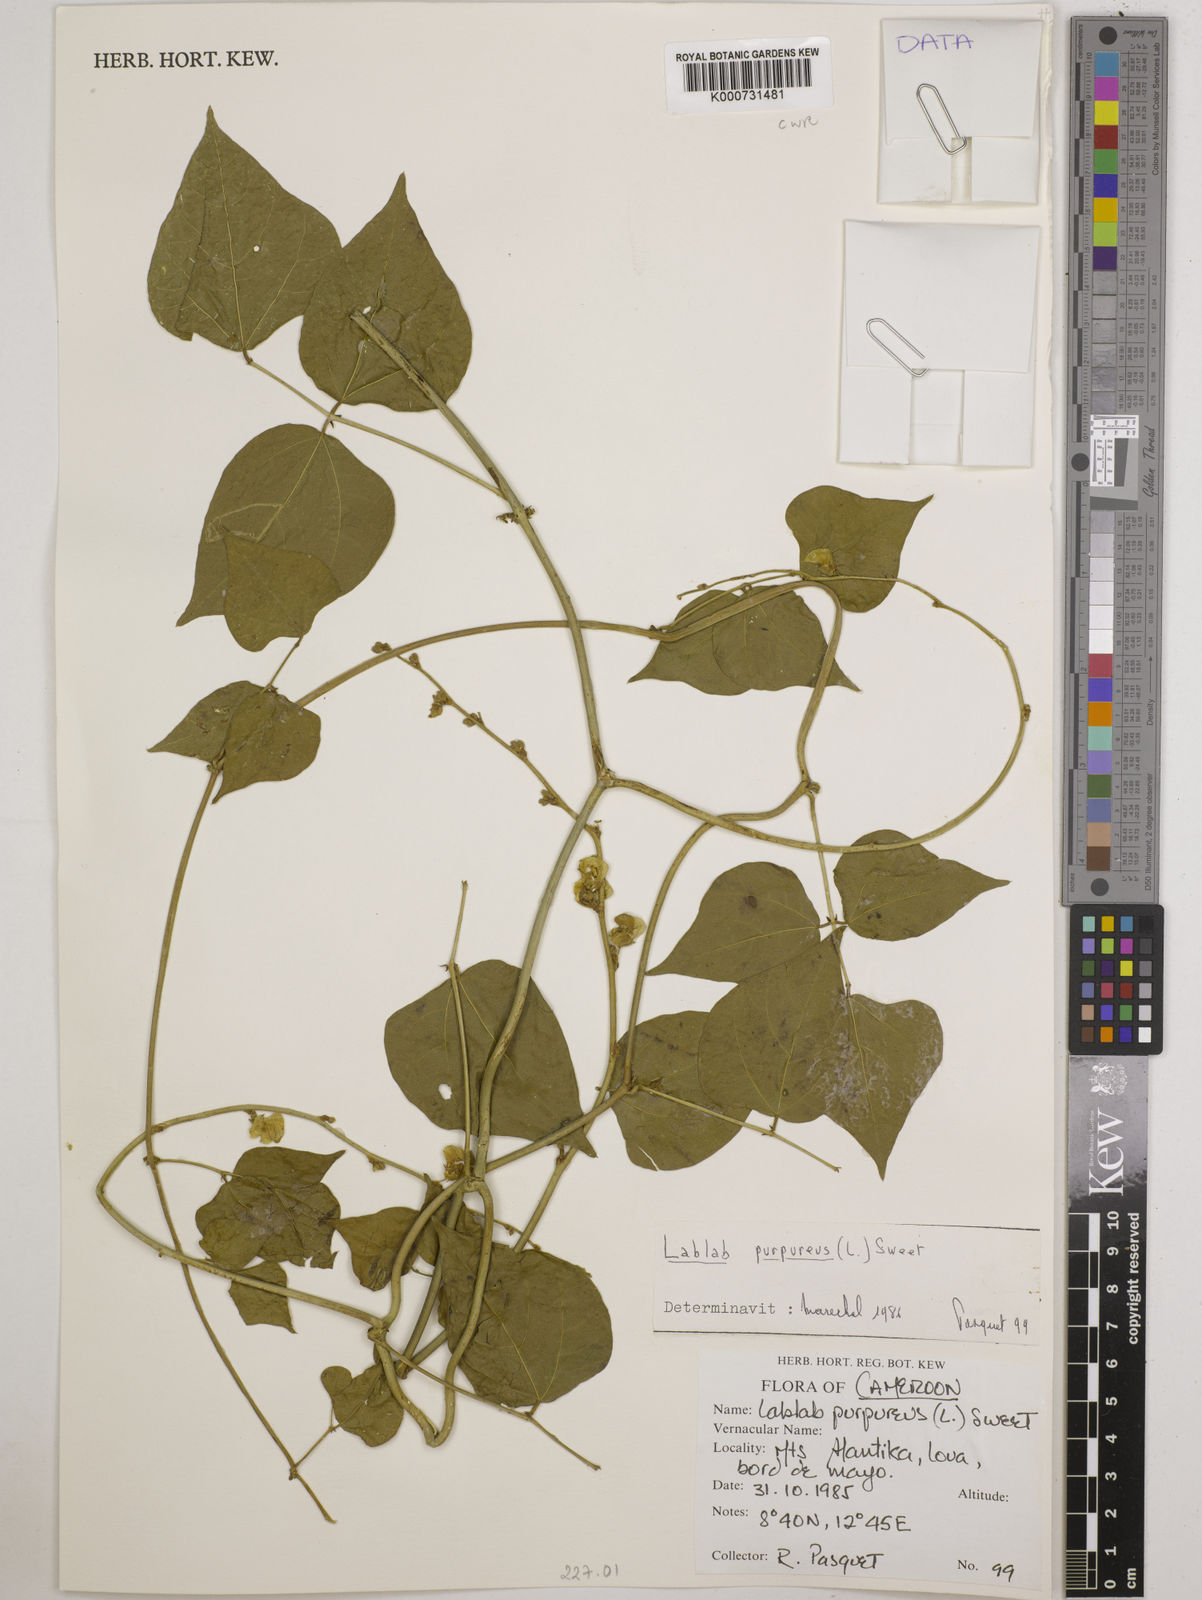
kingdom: Plantae
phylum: Tracheophyta
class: Magnoliopsida
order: Fabales
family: Fabaceae
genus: Lablab
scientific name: Lablab purpureus
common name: Lablab-bean
